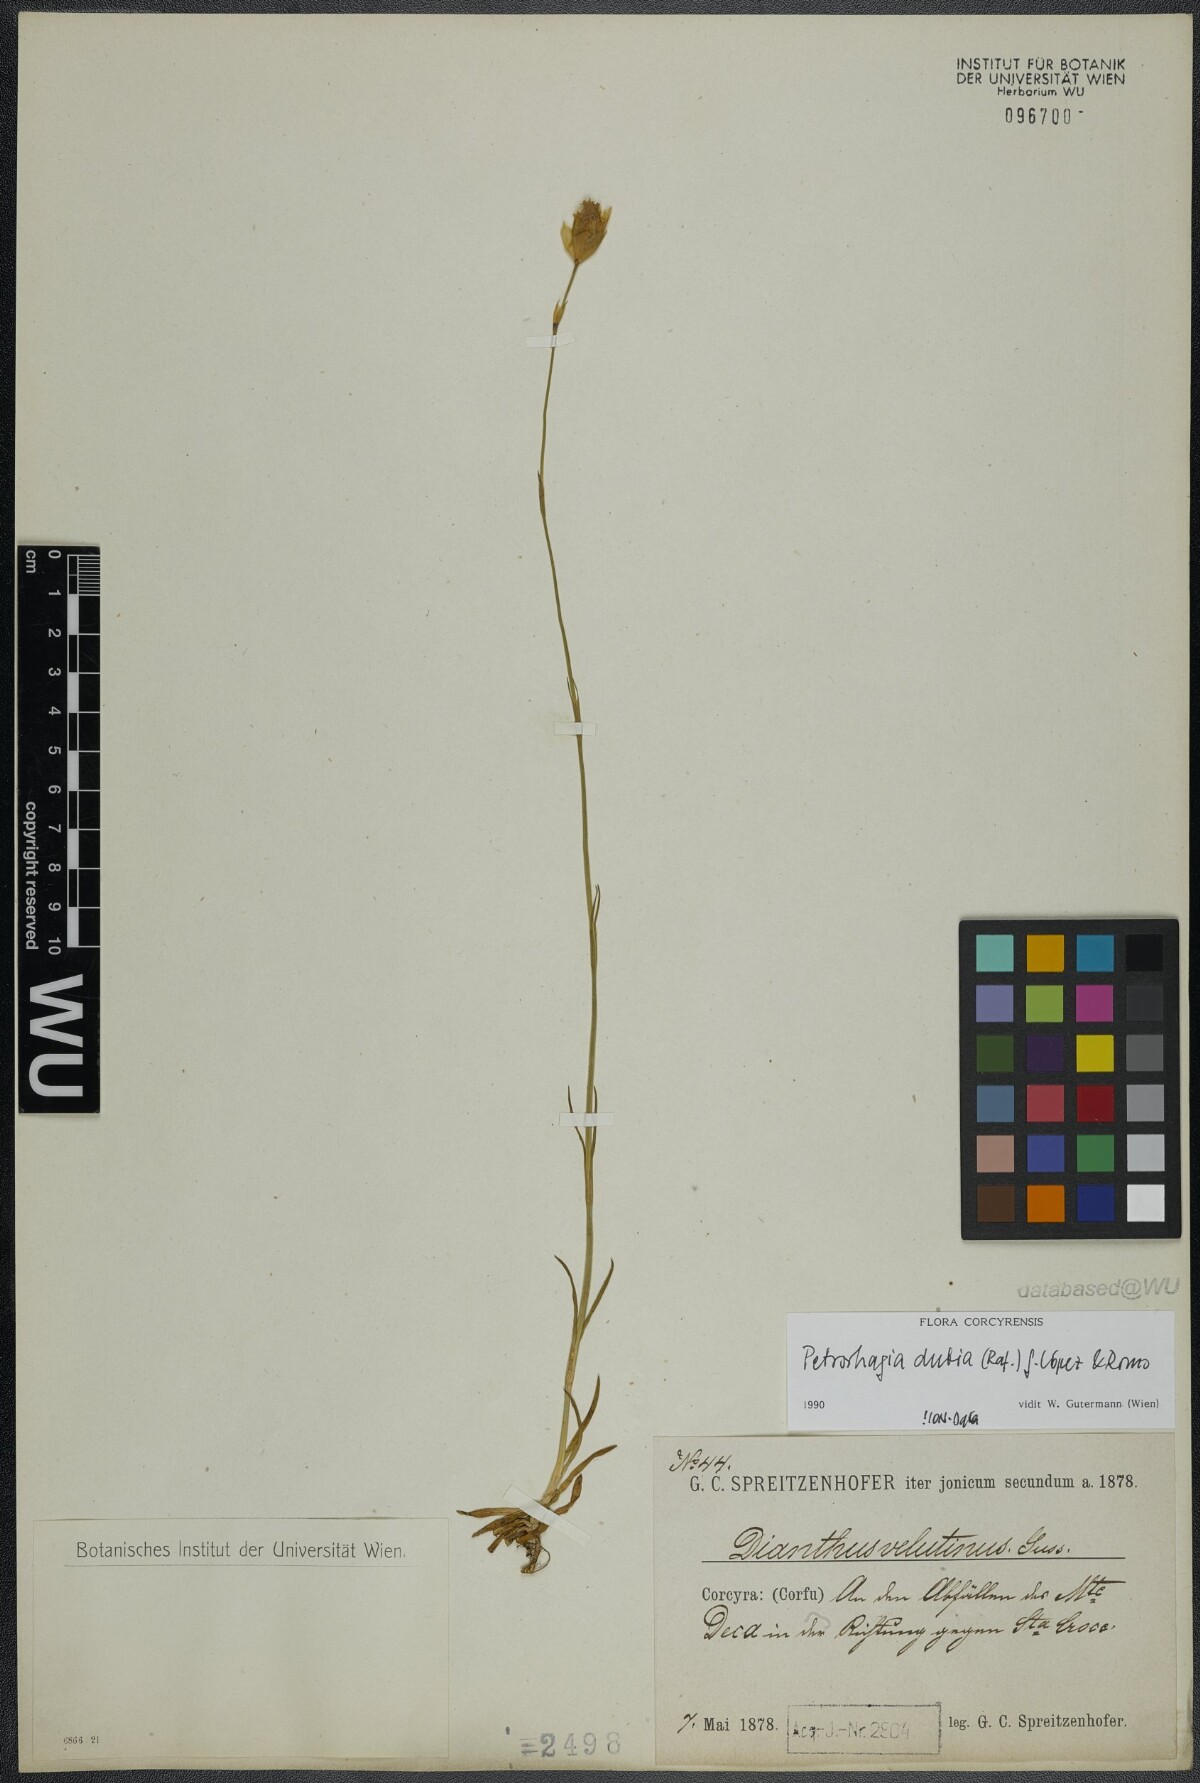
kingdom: Plantae
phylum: Tracheophyta
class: Magnoliopsida
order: Caryophyllales
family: Caryophyllaceae
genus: Petrorhagia
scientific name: Petrorhagia dubia
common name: Hairypink
